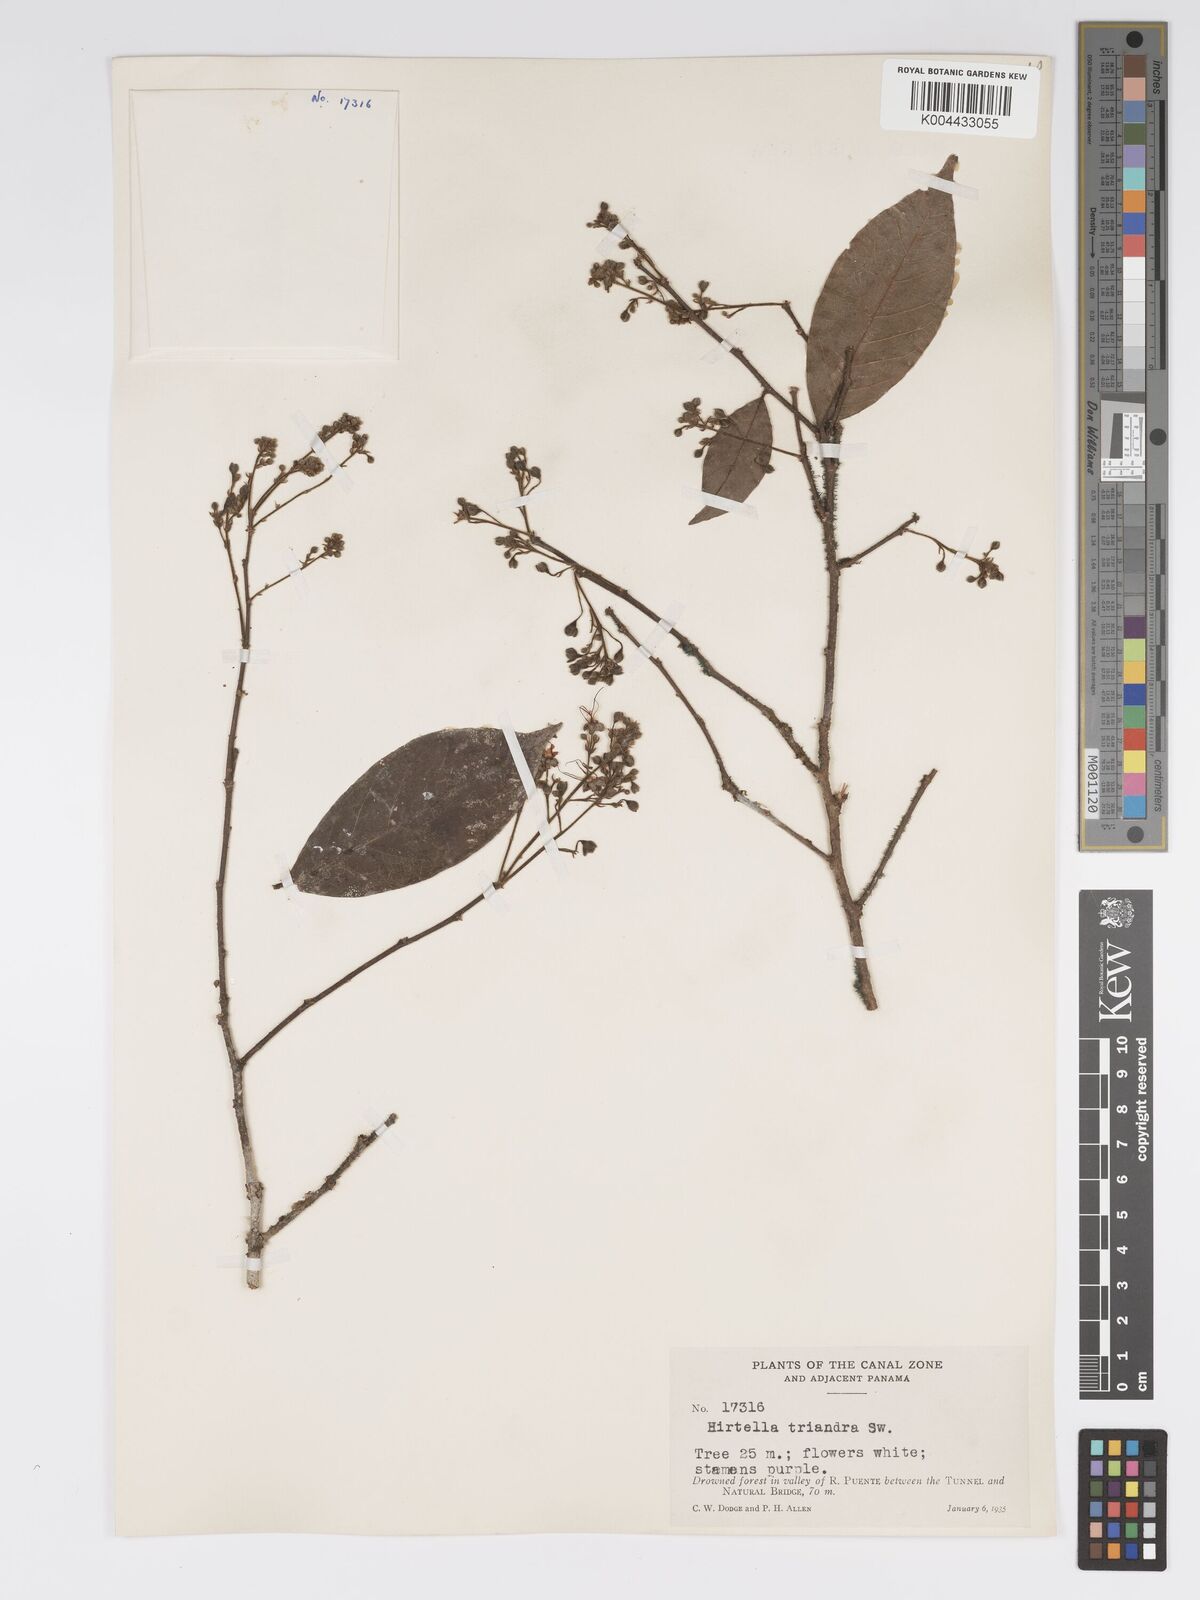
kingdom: Plantae
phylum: Tracheophyta
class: Magnoliopsida
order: Malpighiales
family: Chrysobalanaceae
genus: Hirtella
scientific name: Hirtella triandra
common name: Hairy plum
